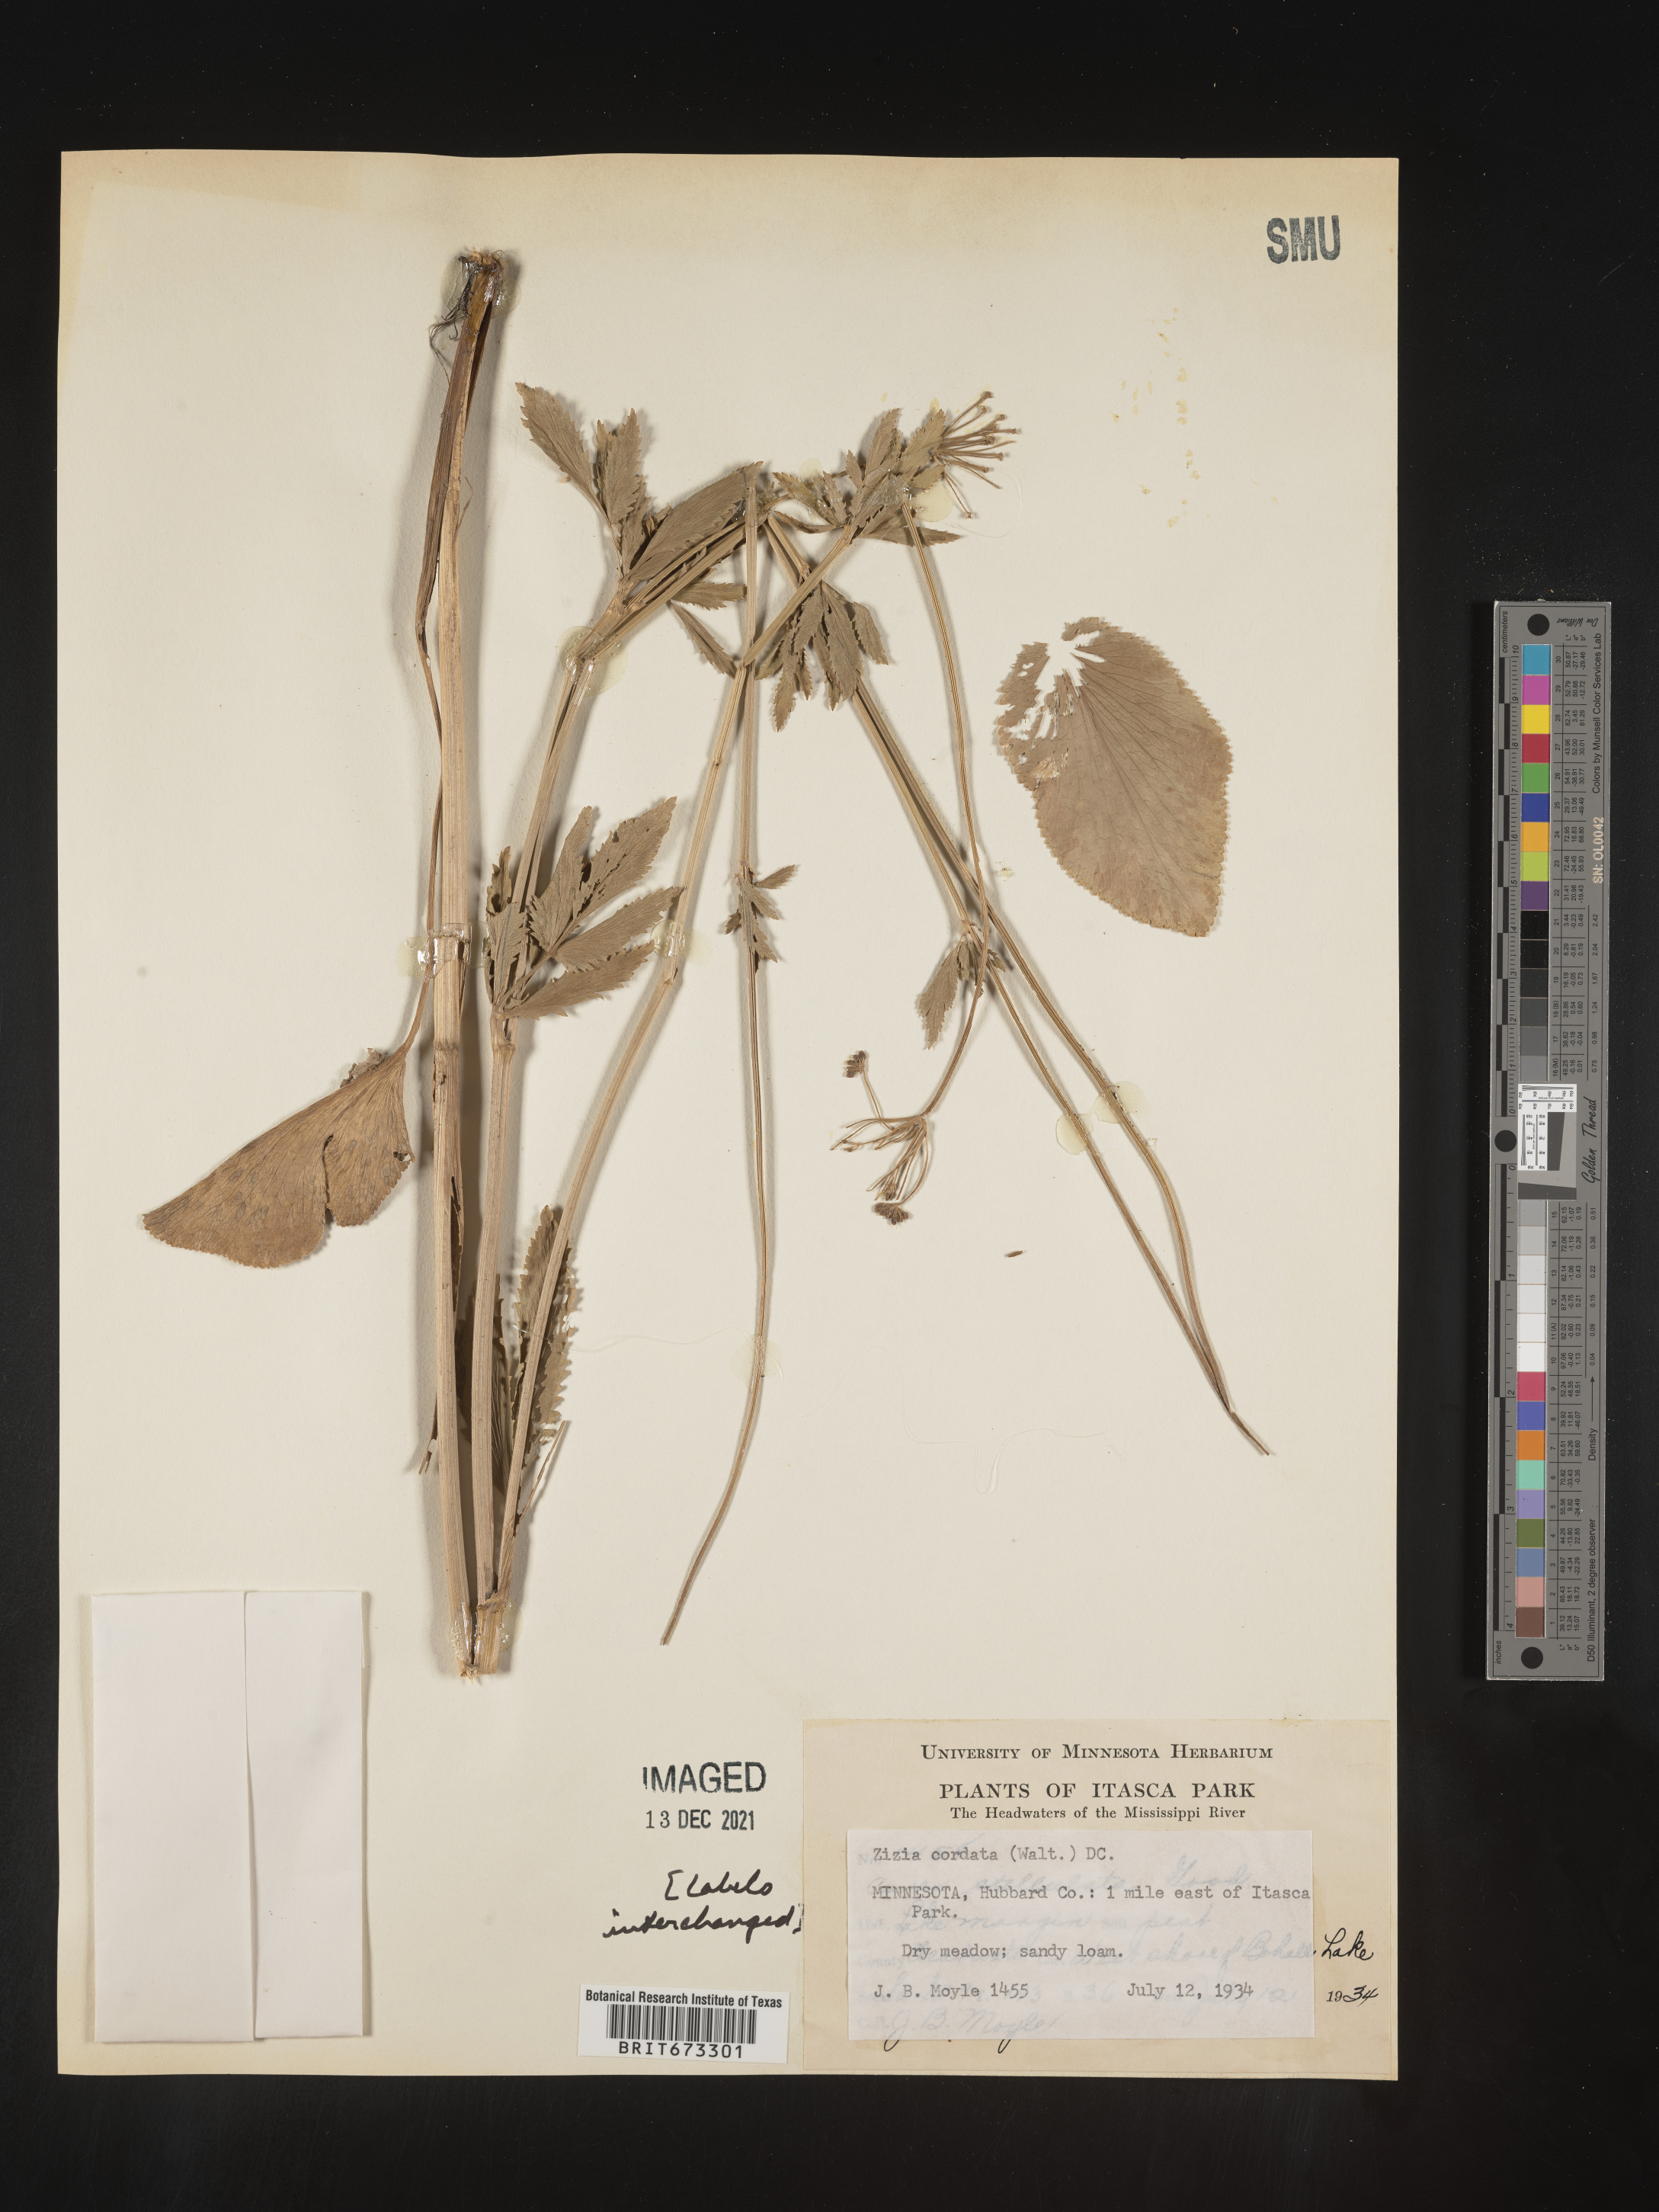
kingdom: Plantae
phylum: Tracheophyta
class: Magnoliopsida
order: Apiales
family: Apiaceae
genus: Zizia
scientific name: Zizia aptera
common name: Heart-leaved alexanders
